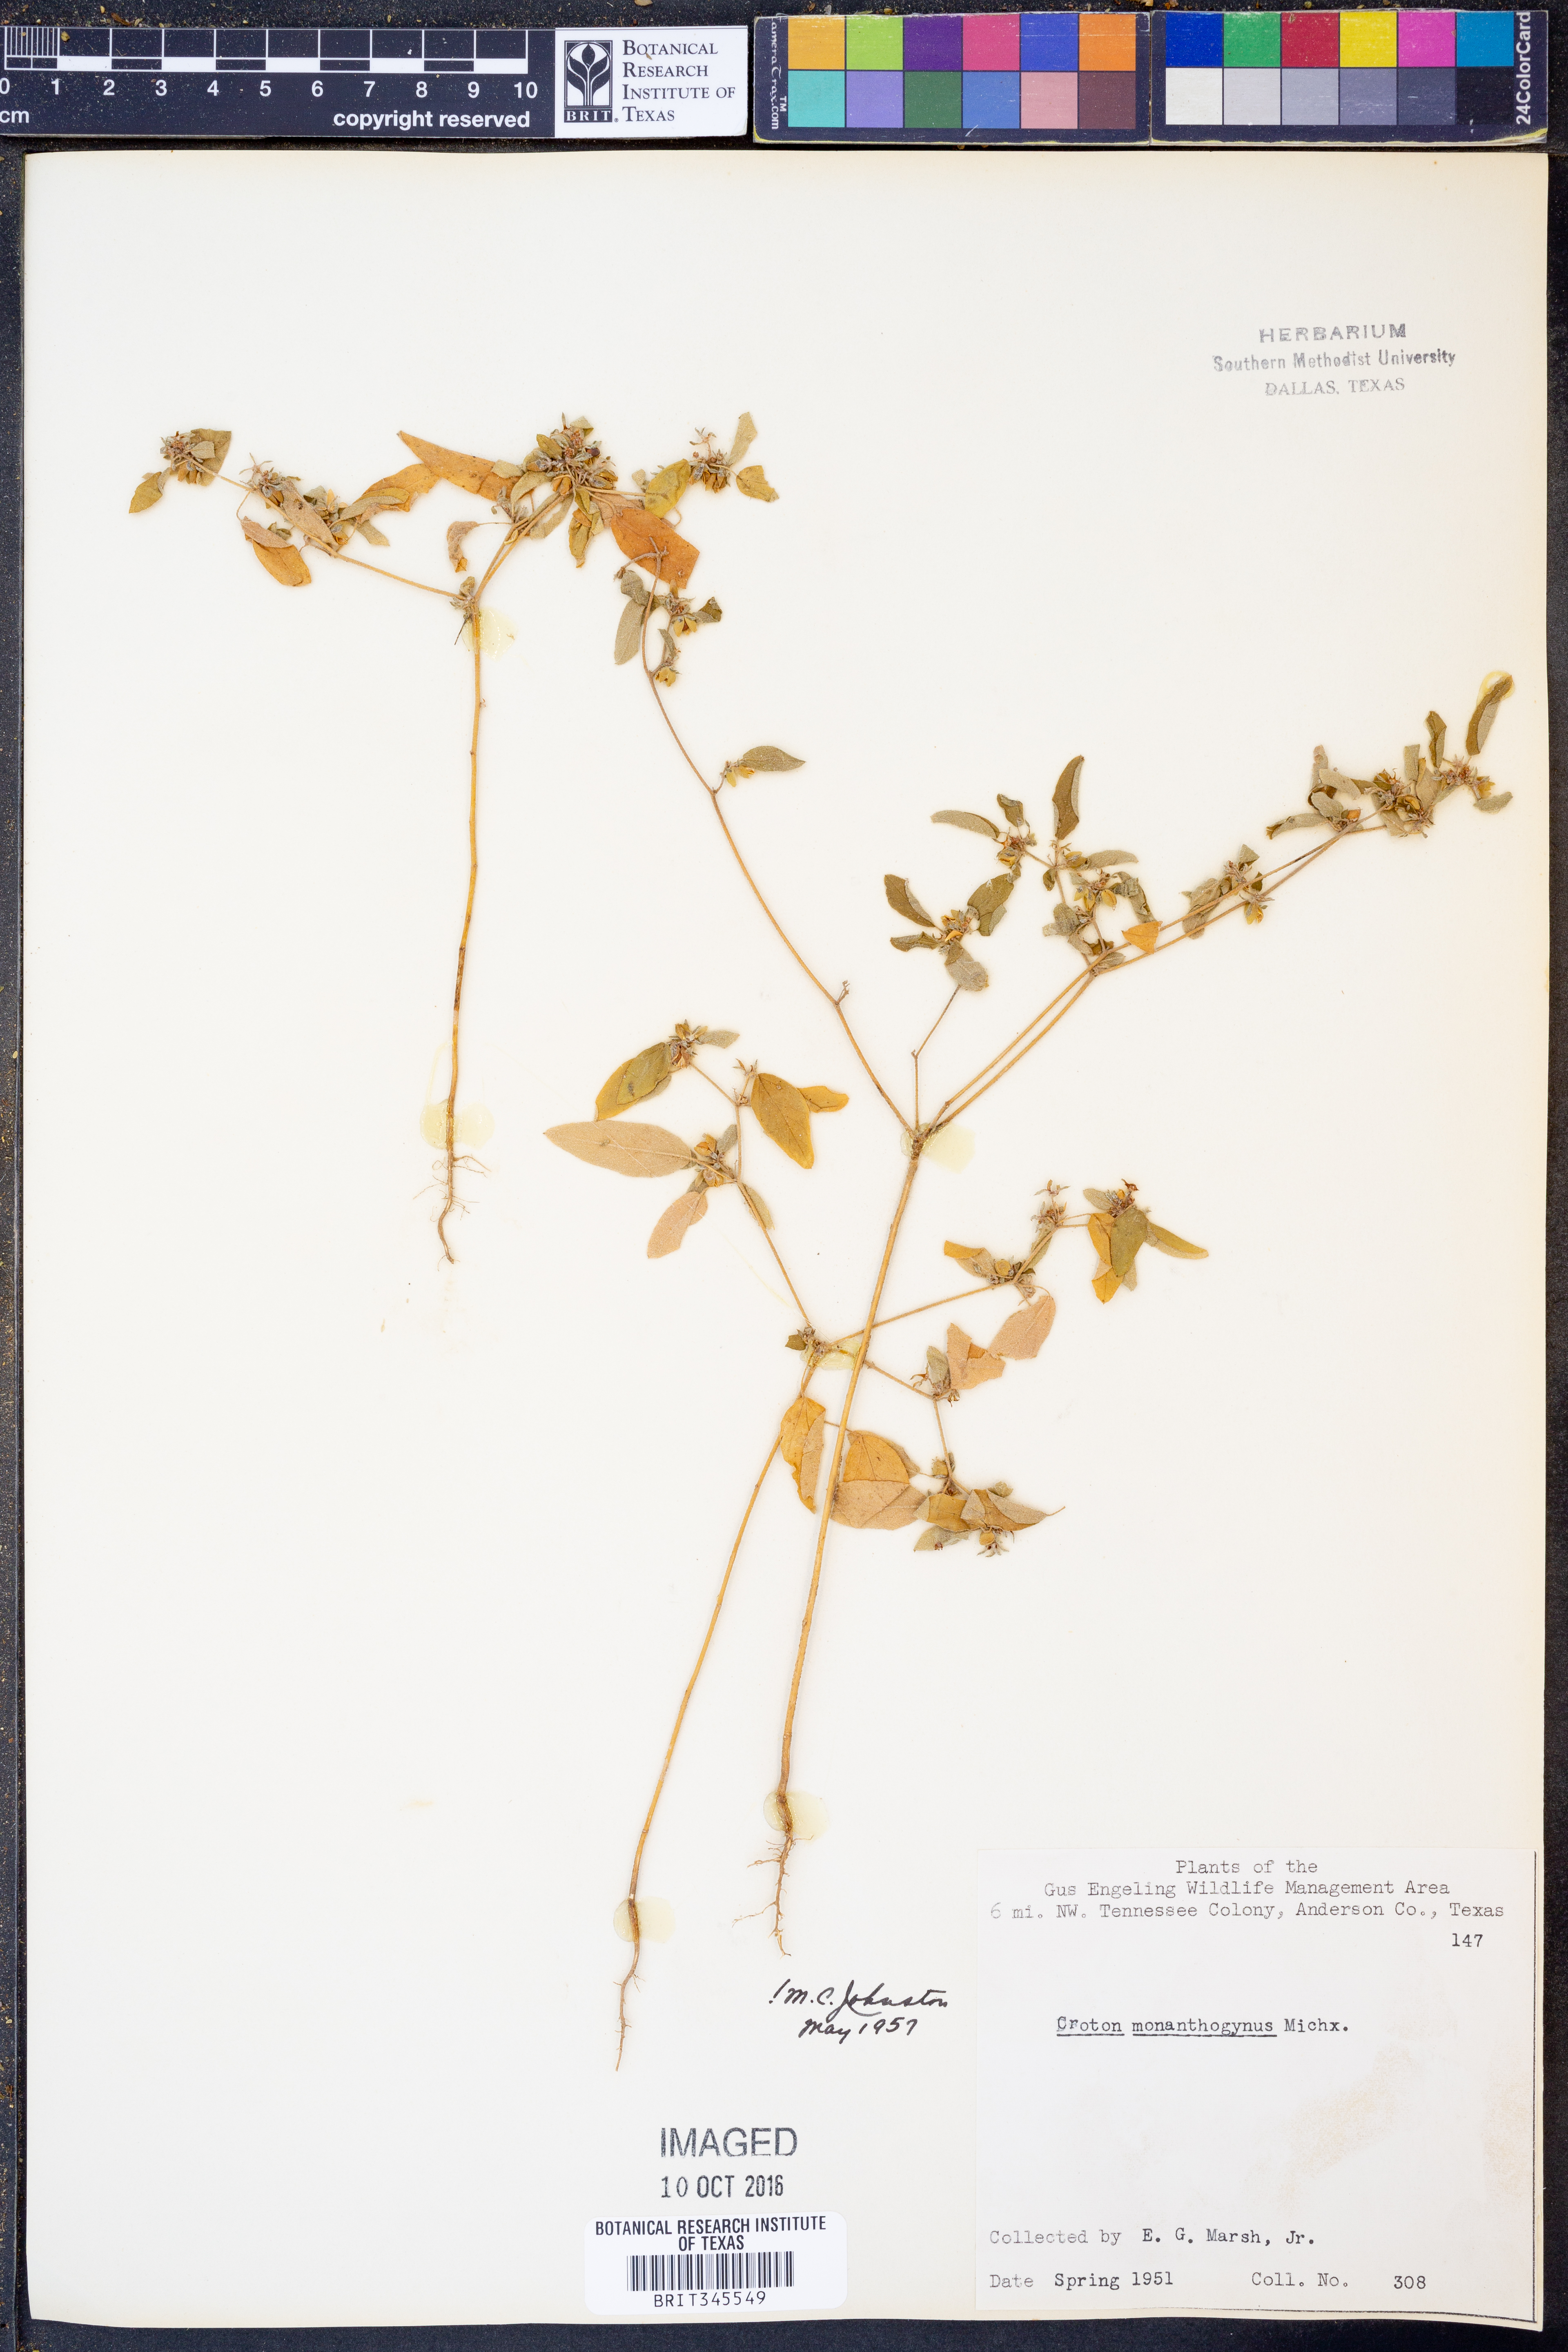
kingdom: Plantae
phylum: Tracheophyta
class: Magnoliopsida
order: Malpighiales
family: Euphorbiaceae
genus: Croton
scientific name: Croton monanthogynus
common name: One-seed croton
